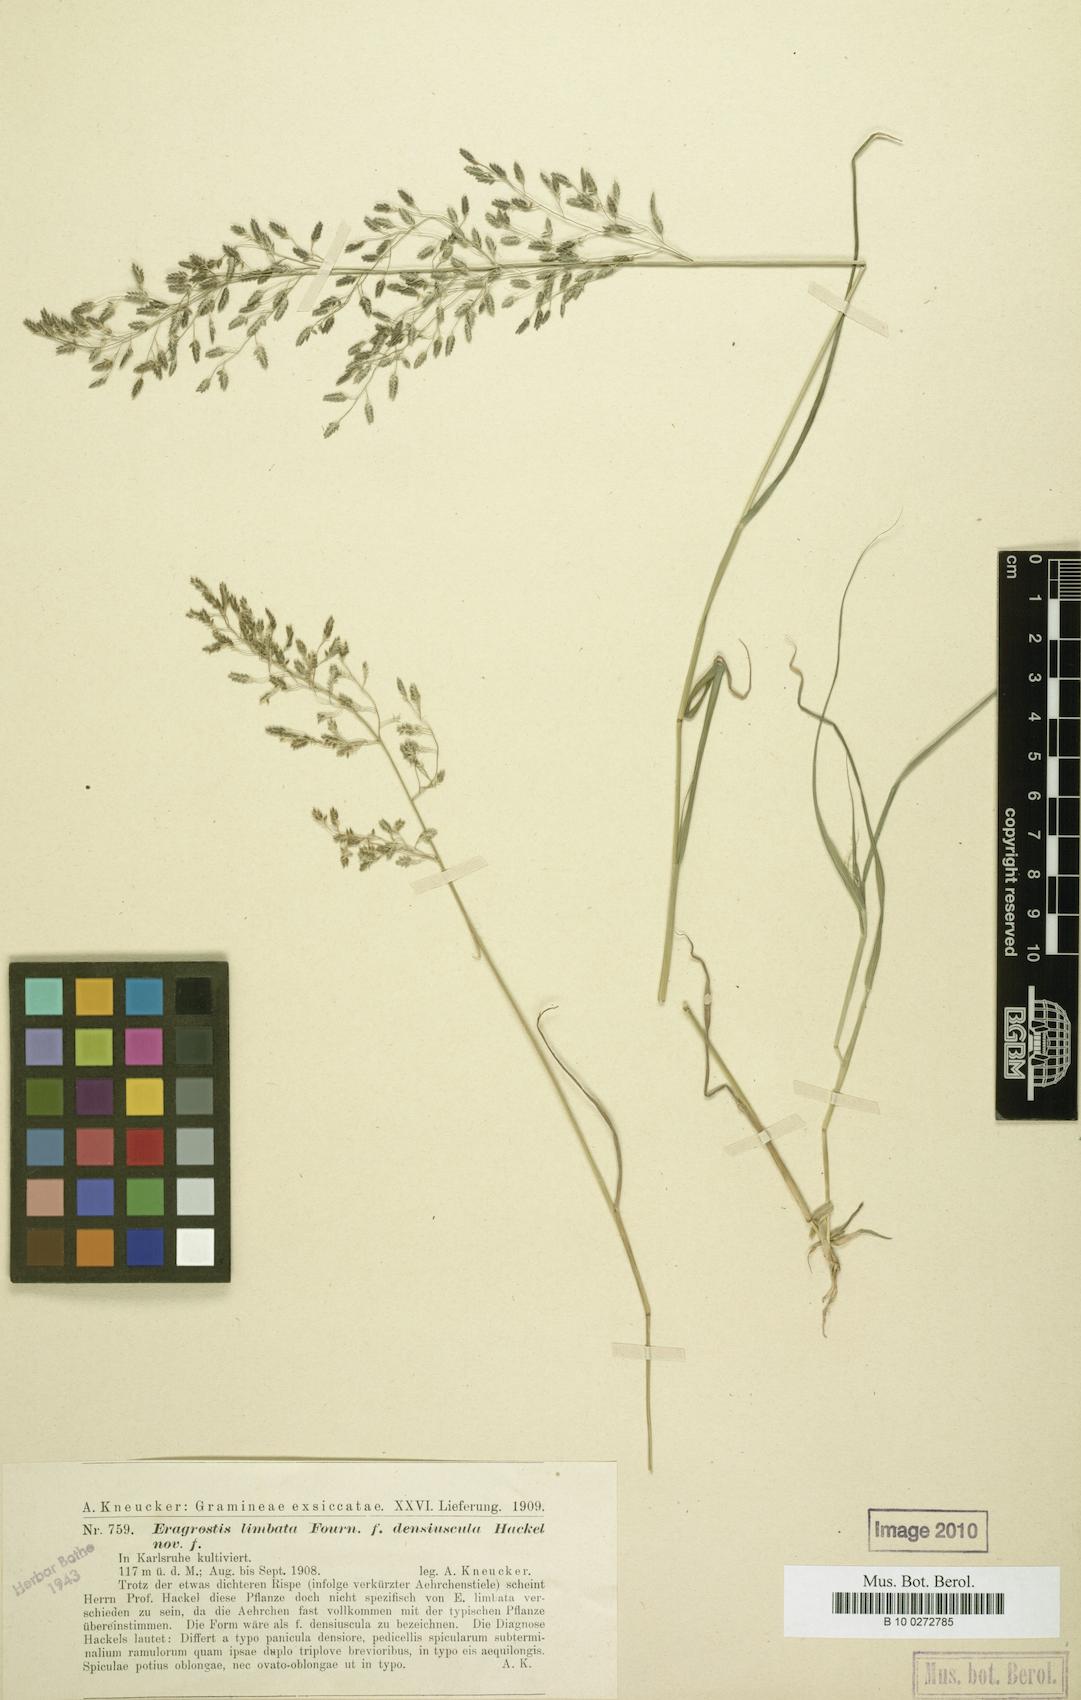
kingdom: Plantae
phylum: Tracheophyta
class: Liliopsida
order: Poales
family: Poaceae
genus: Eragrostis
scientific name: Eragrostis mexicana
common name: Mexican love grass
